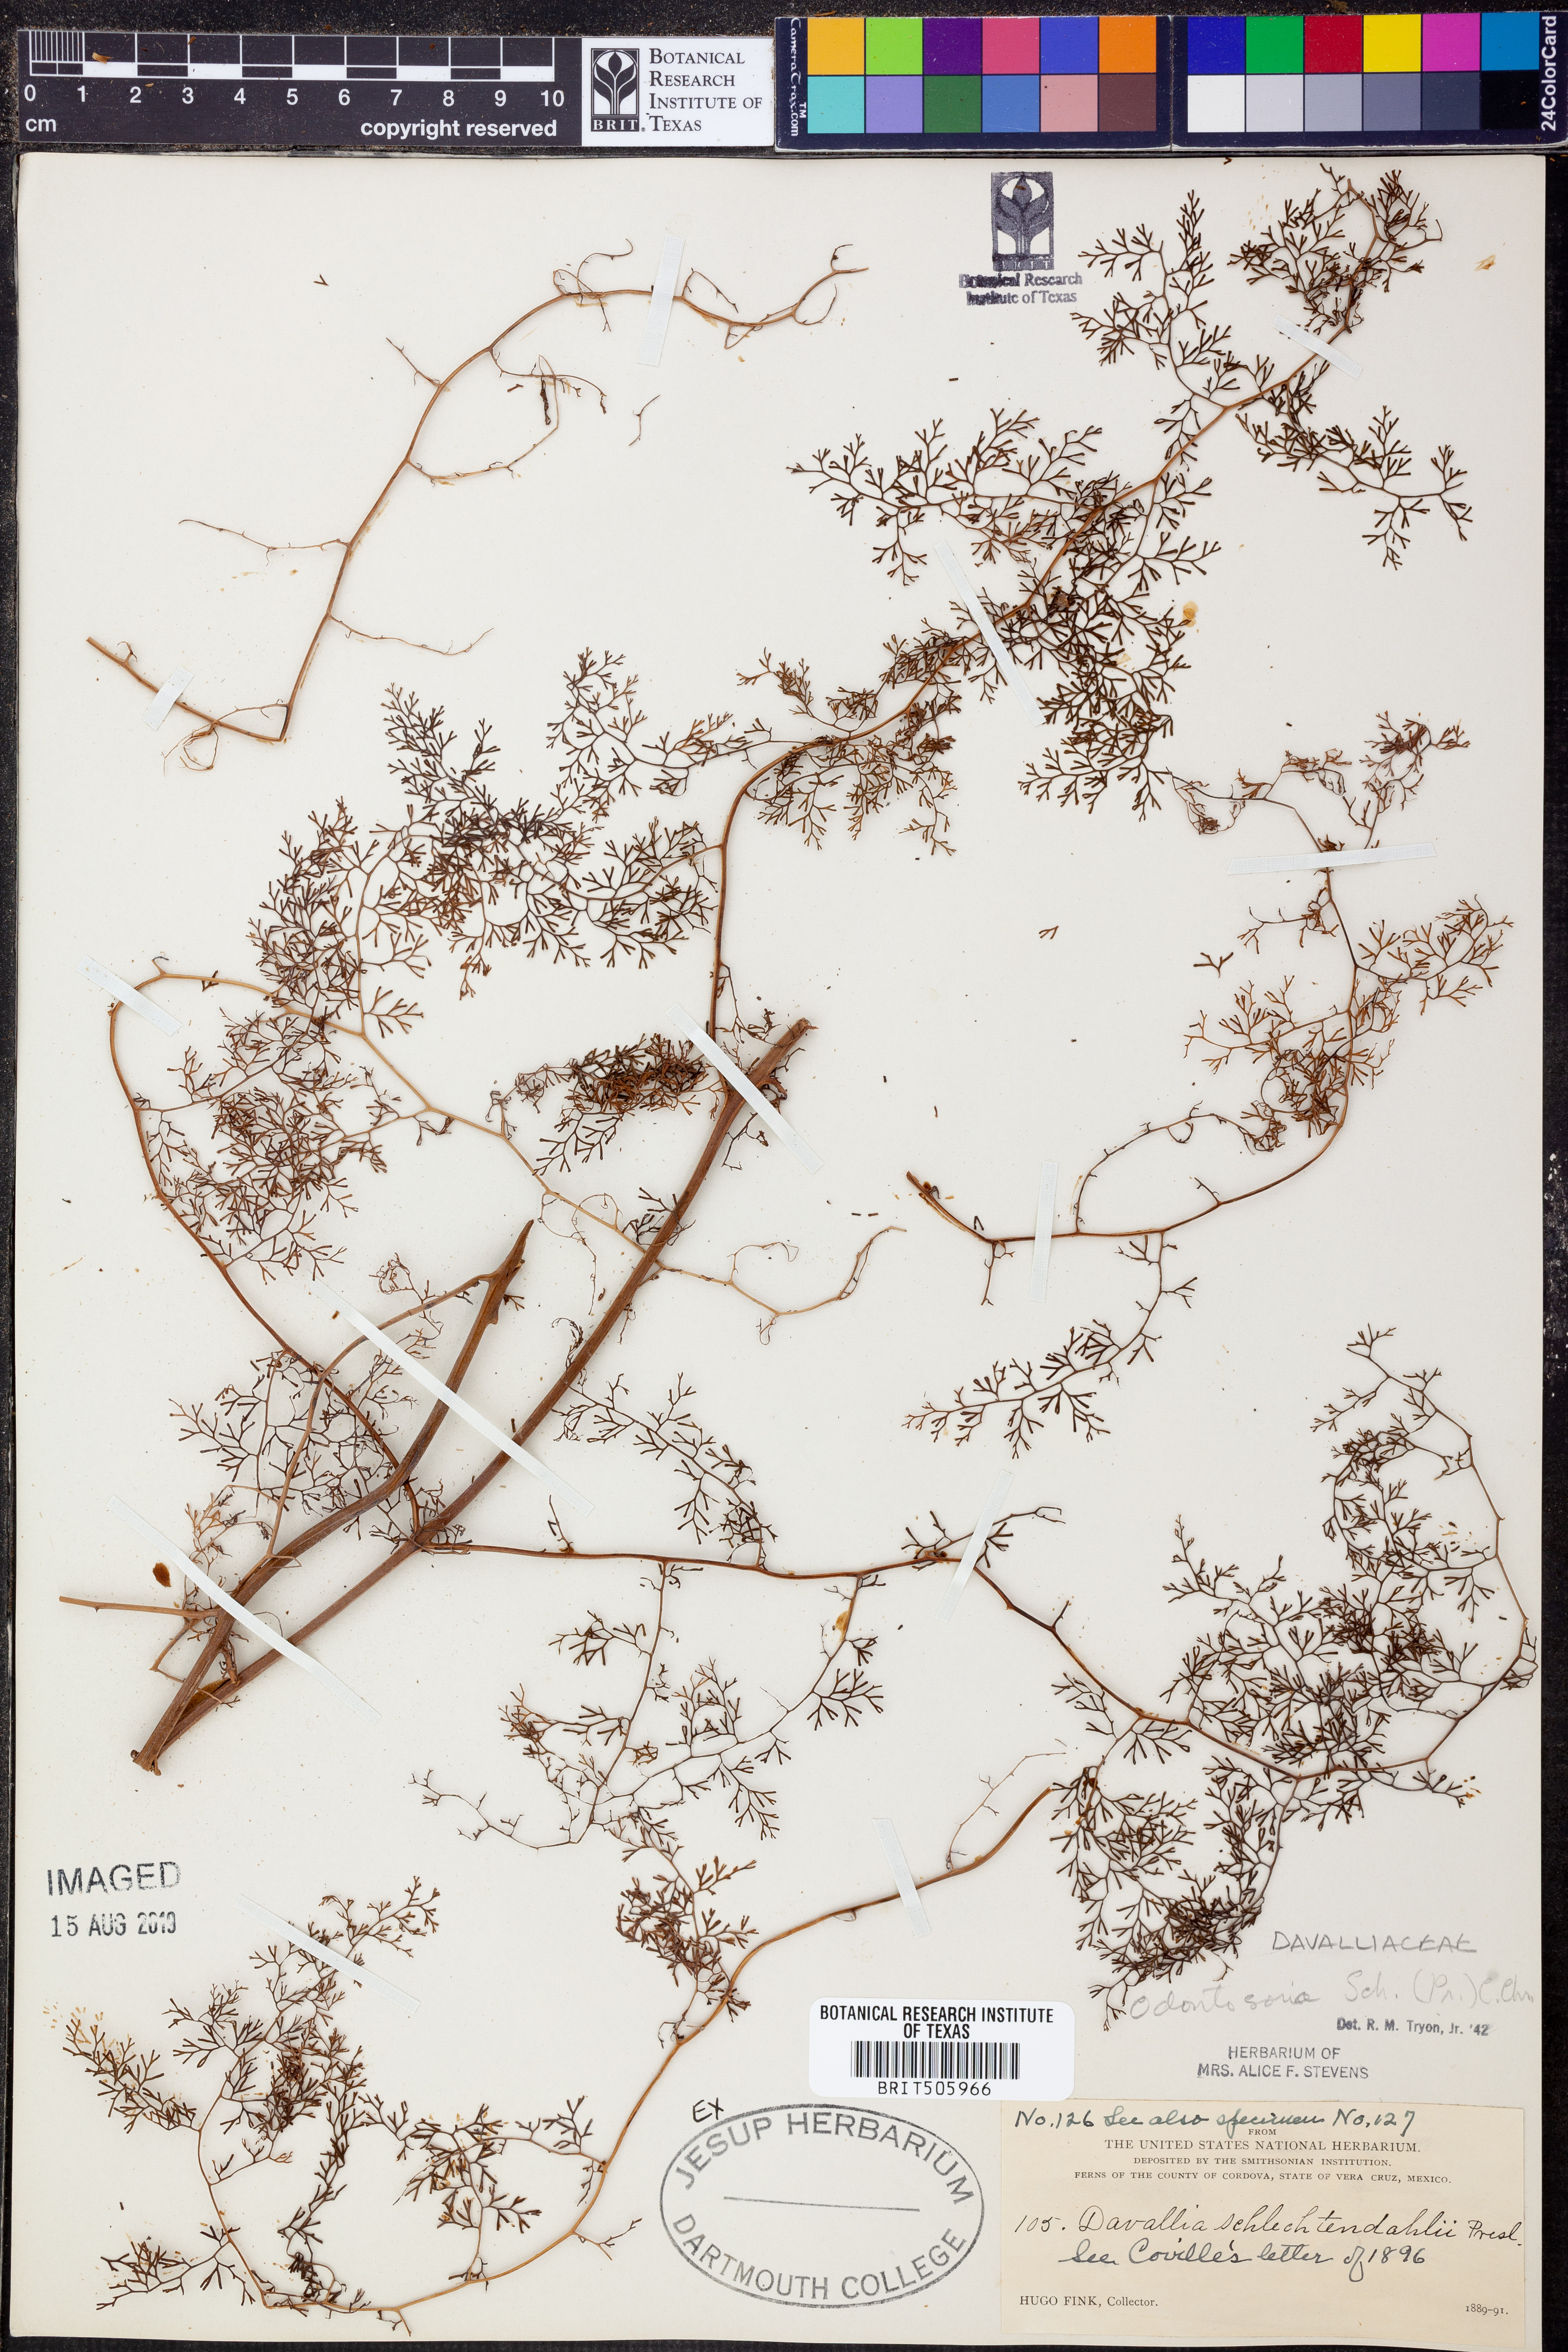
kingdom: Plantae
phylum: Tracheophyta
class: Polypodiopsida
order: Polypodiales
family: Lindsaeaceae
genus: Odontosoria
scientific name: Odontosoria schlechtendalii
